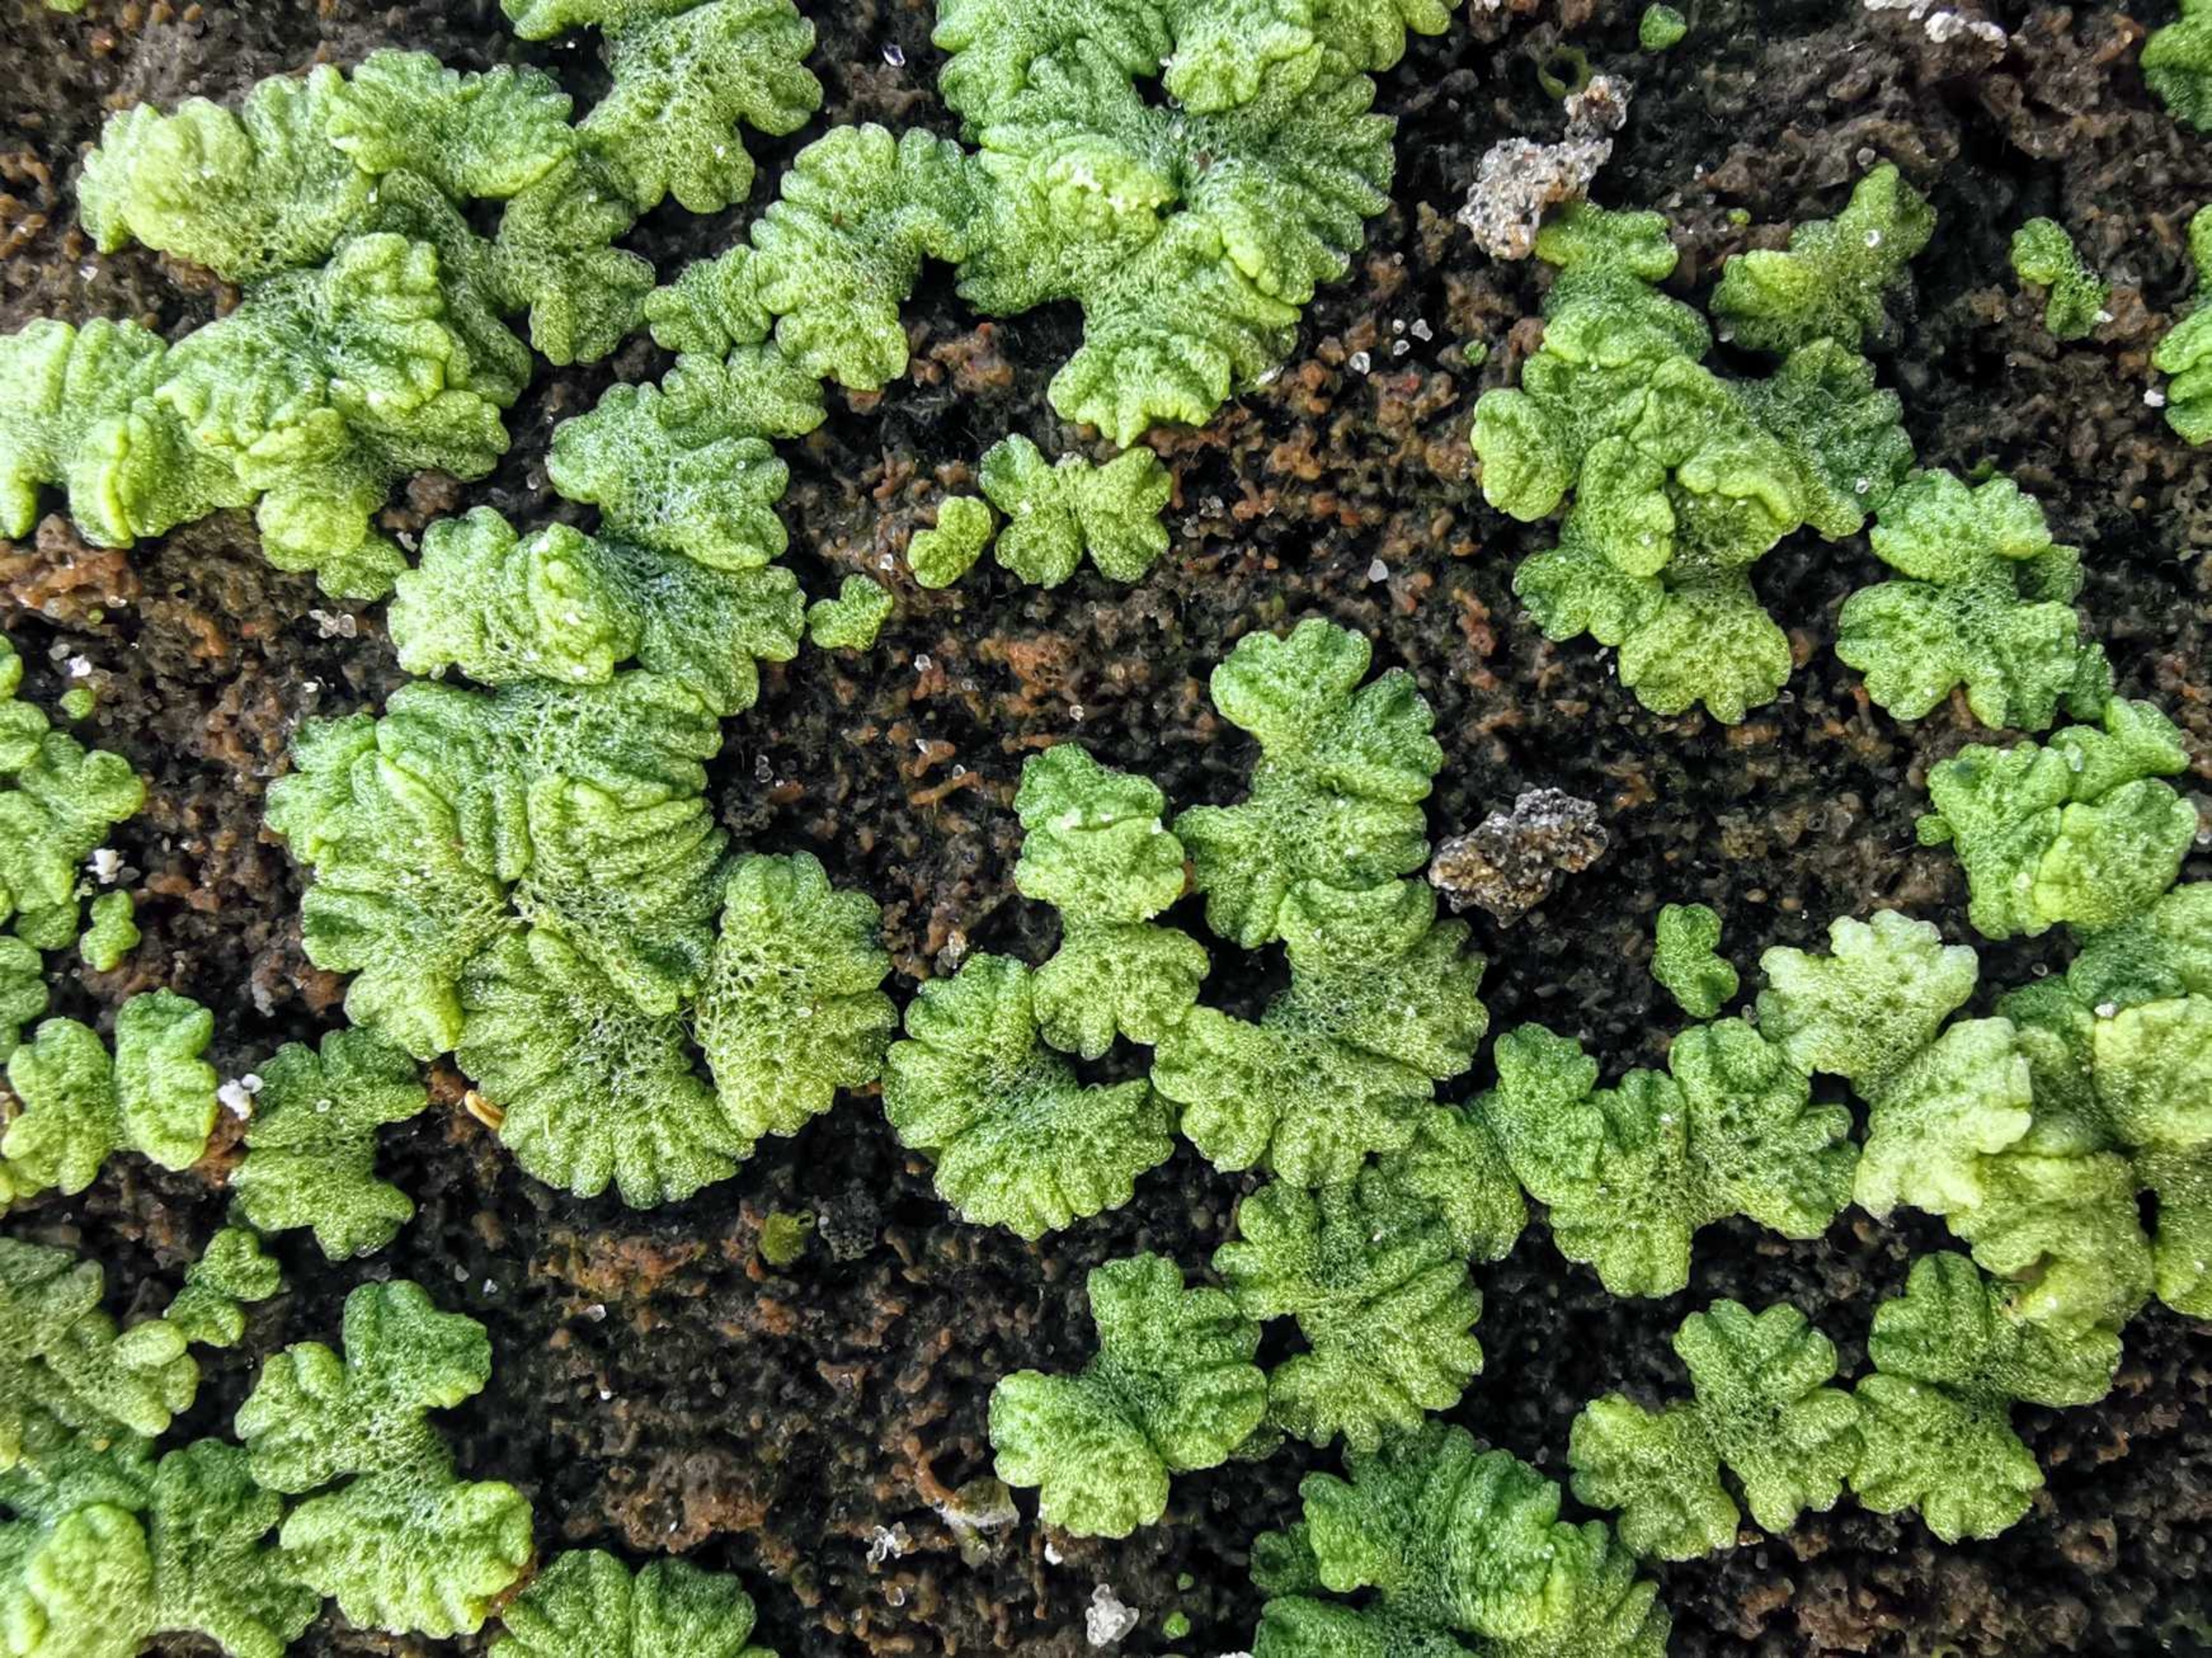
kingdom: Plantae
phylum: Marchantiophyta
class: Marchantiopsida
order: Marchantiales
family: Ricciaceae
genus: Riccia
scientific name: Riccia cavernosa
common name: Grubet stjerneløv
